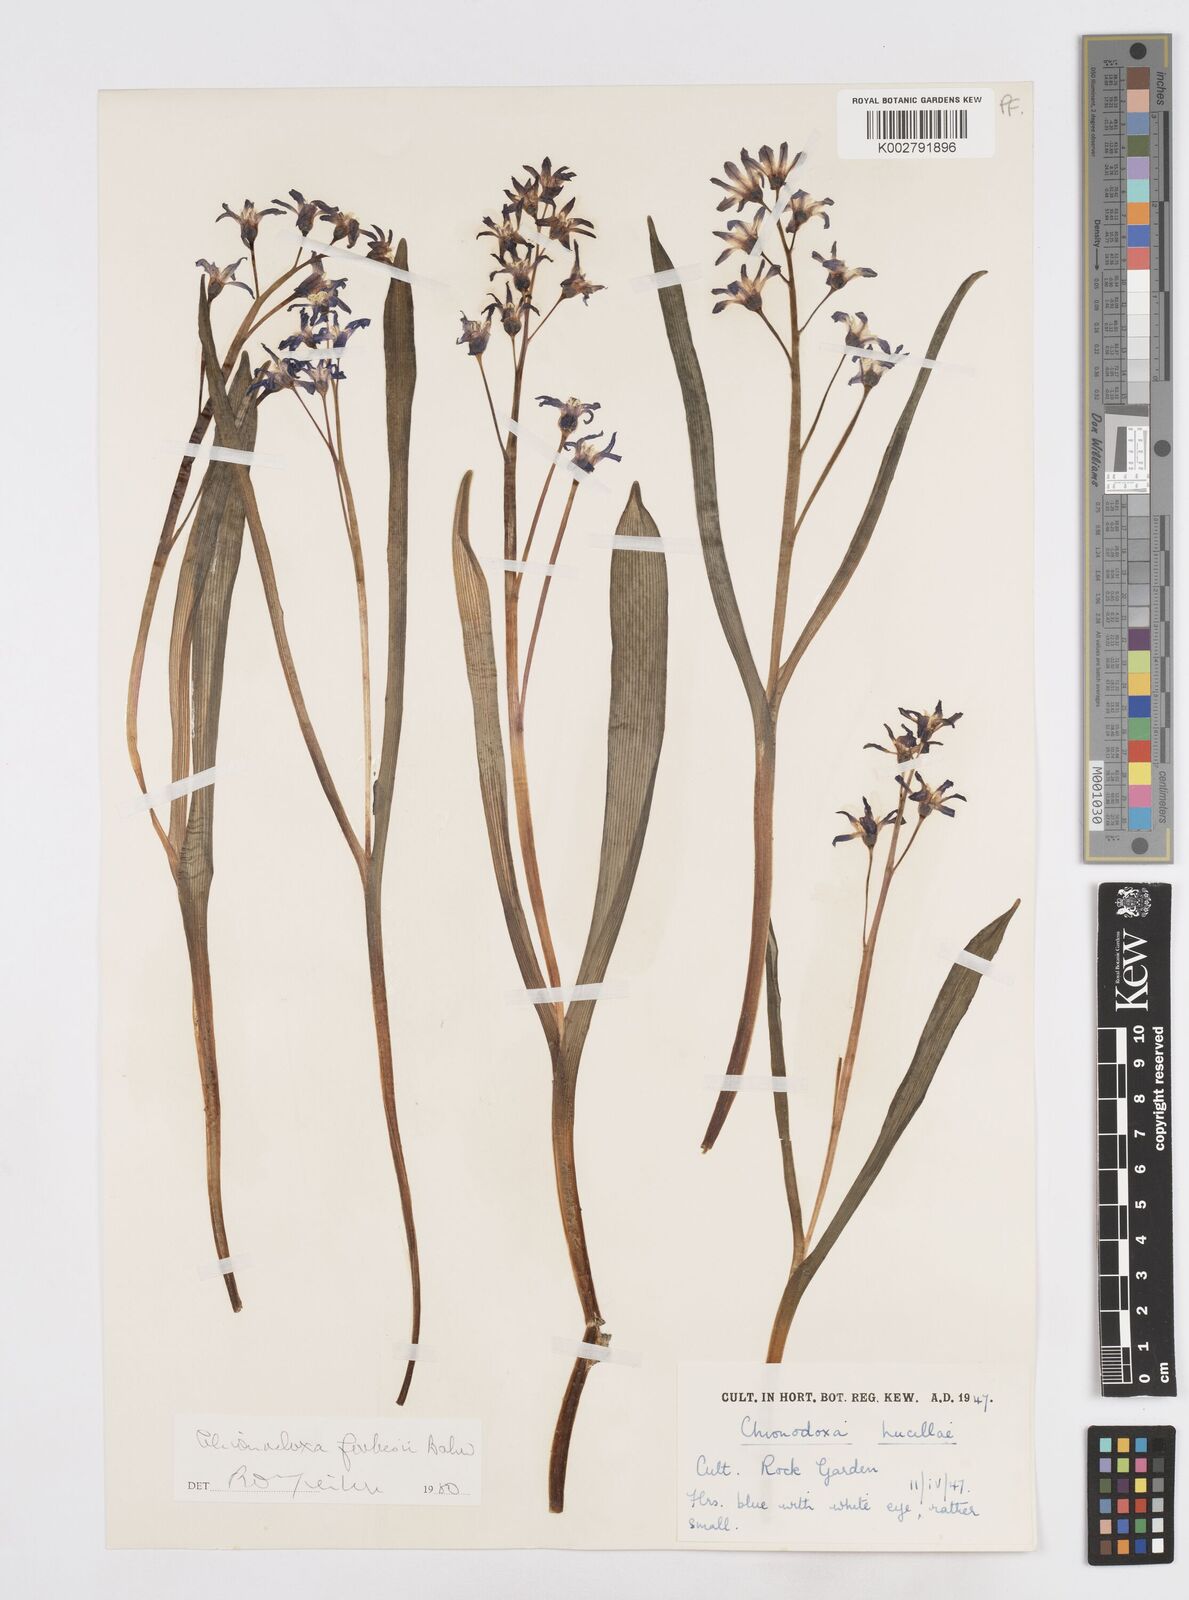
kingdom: Plantae
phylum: Tracheophyta
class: Liliopsida
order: Asparagales
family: Asparagaceae
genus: Scilla
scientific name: Scilla forbesii
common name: Glory-of-the-snow
